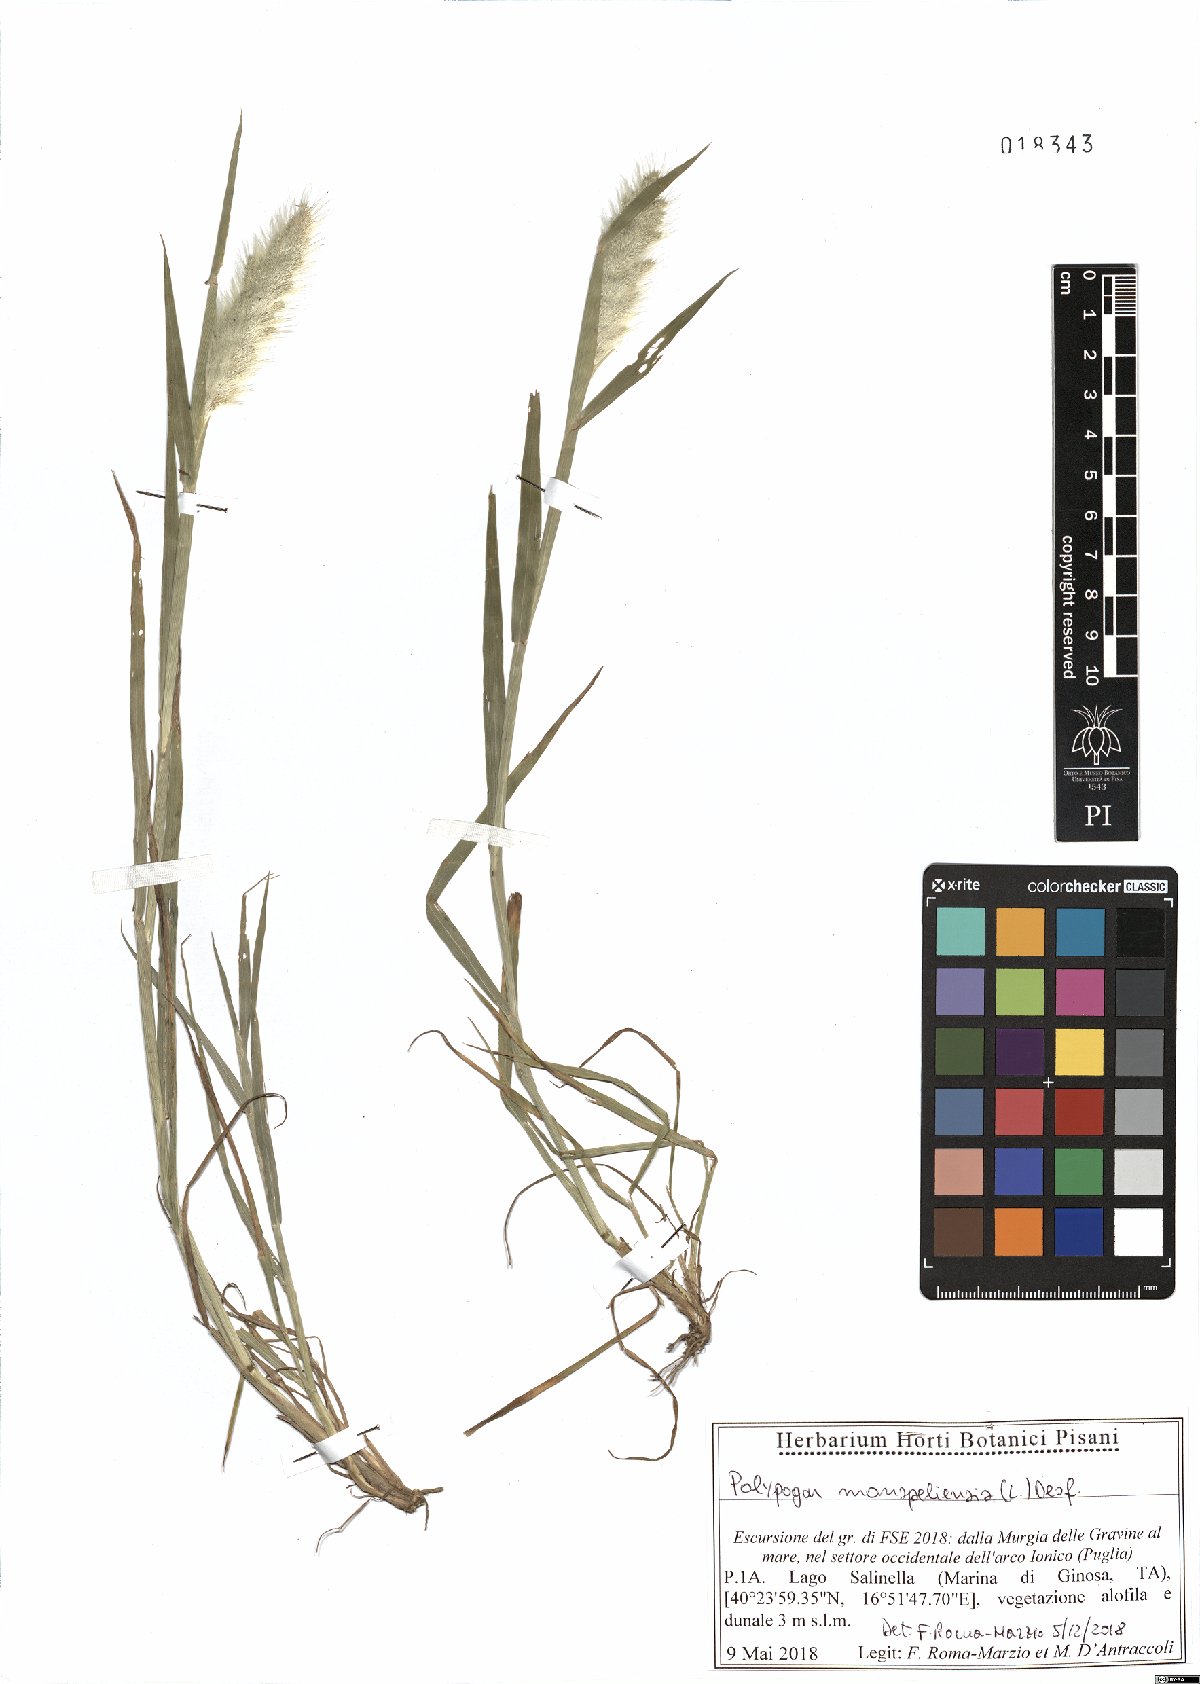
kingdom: Plantae
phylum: Tracheophyta
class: Liliopsida
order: Poales
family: Poaceae
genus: Polypogon
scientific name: Polypogon monspeliensis
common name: Annual rabbitsfoot grass
